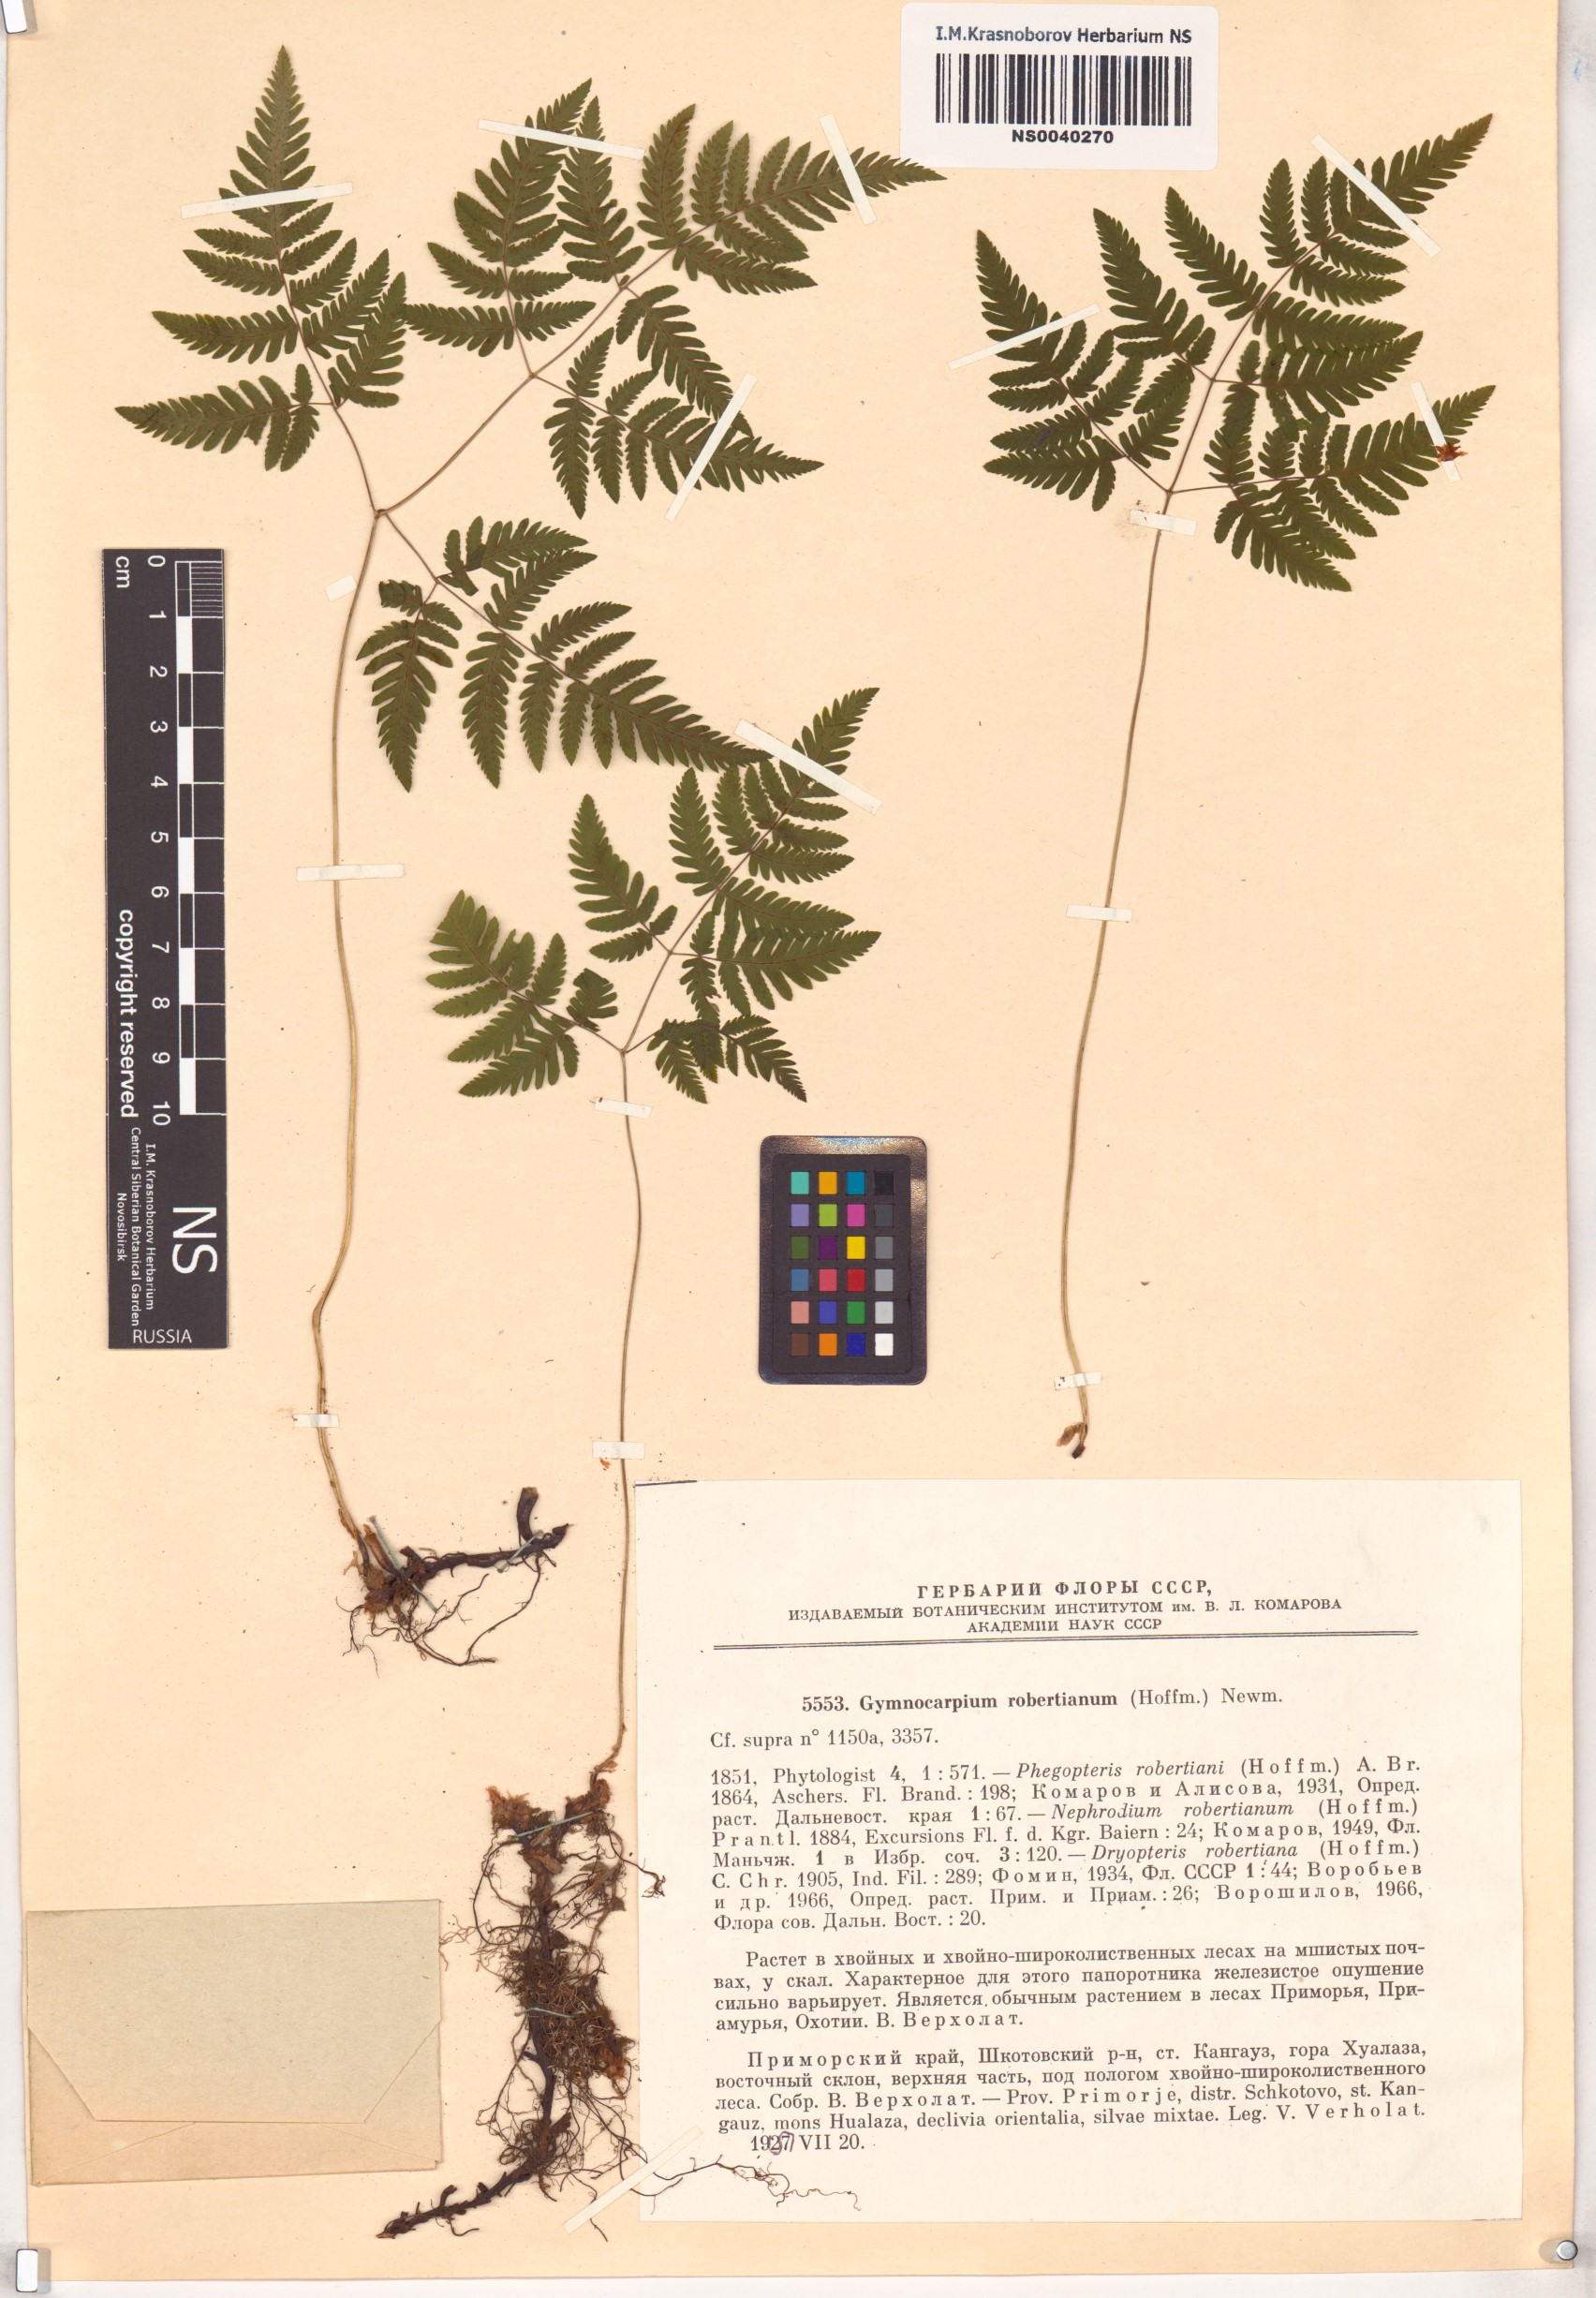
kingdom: Plantae
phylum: Tracheophyta
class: Polypodiopsida
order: Polypodiales
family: Cystopteridaceae
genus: Gymnocarpium
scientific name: Gymnocarpium robertianum
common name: Limestone fern
